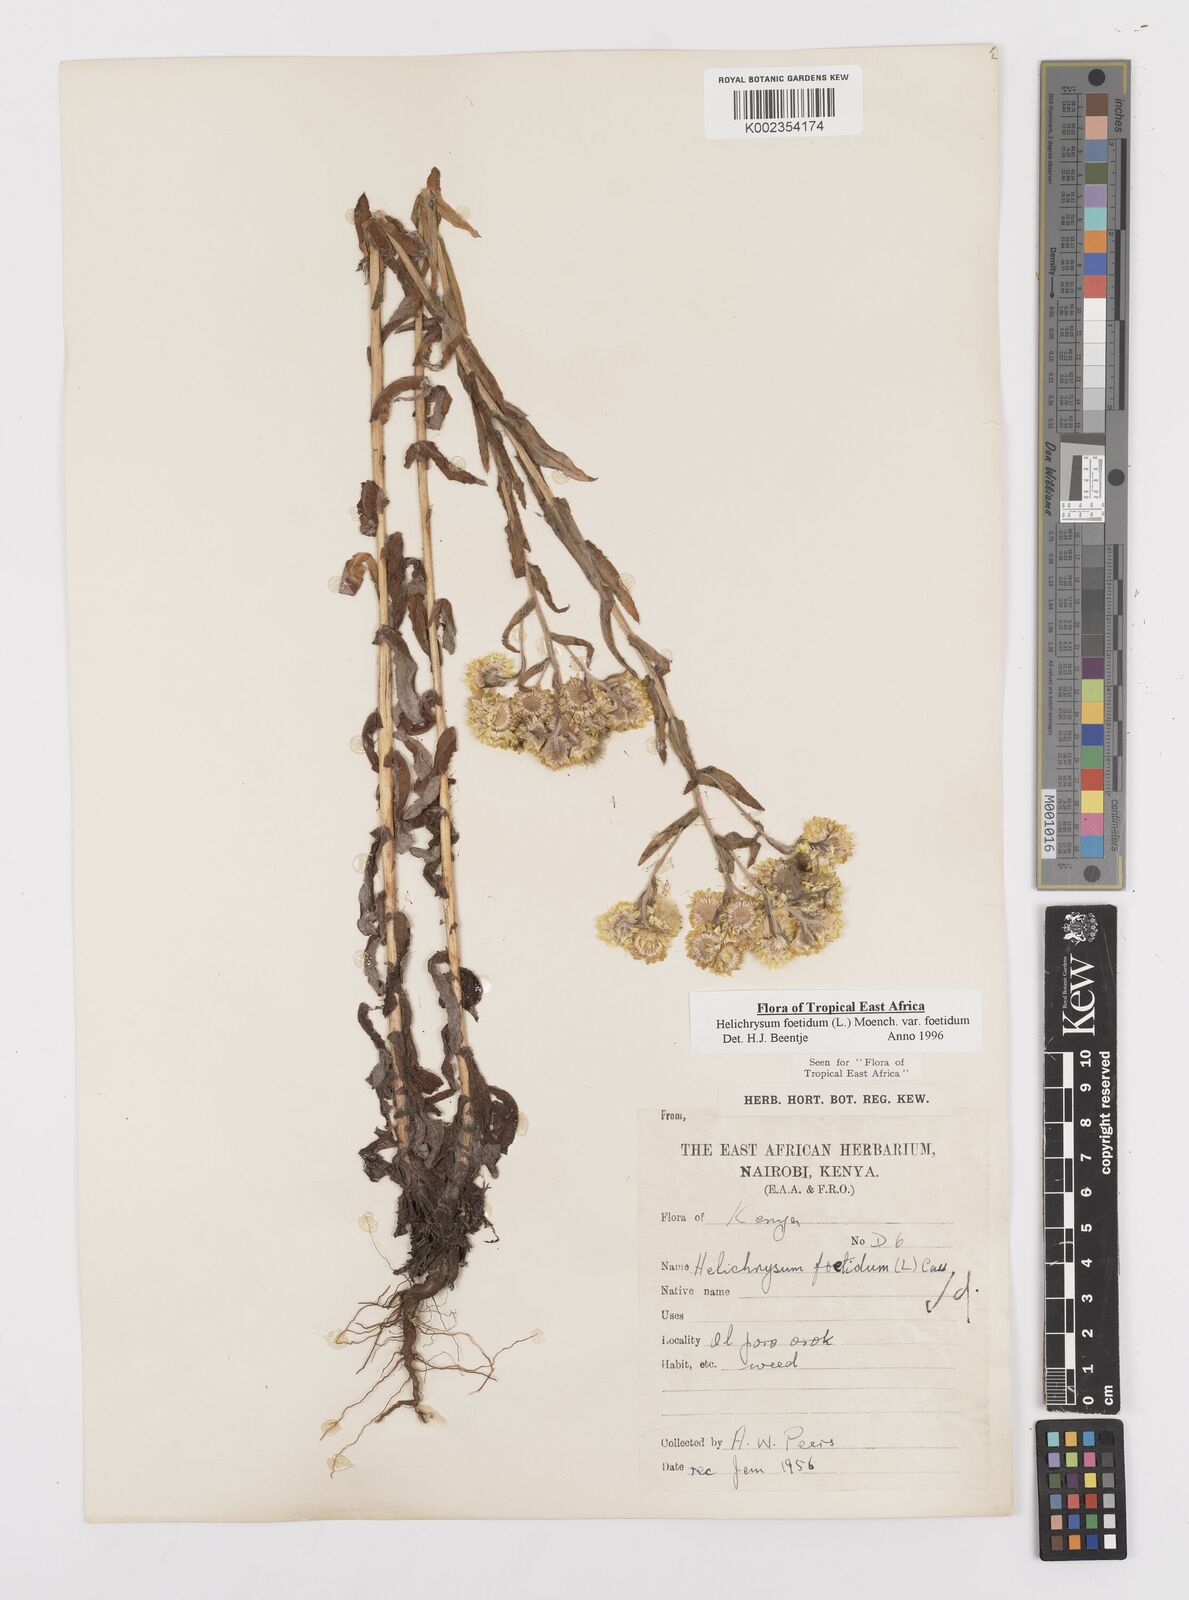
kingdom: Plantae
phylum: Tracheophyta
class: Magnoliopsida
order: Asterales
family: Asteraceae
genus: Helichrysum
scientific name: Helichrysum foetidum
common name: Stinking everlasting
